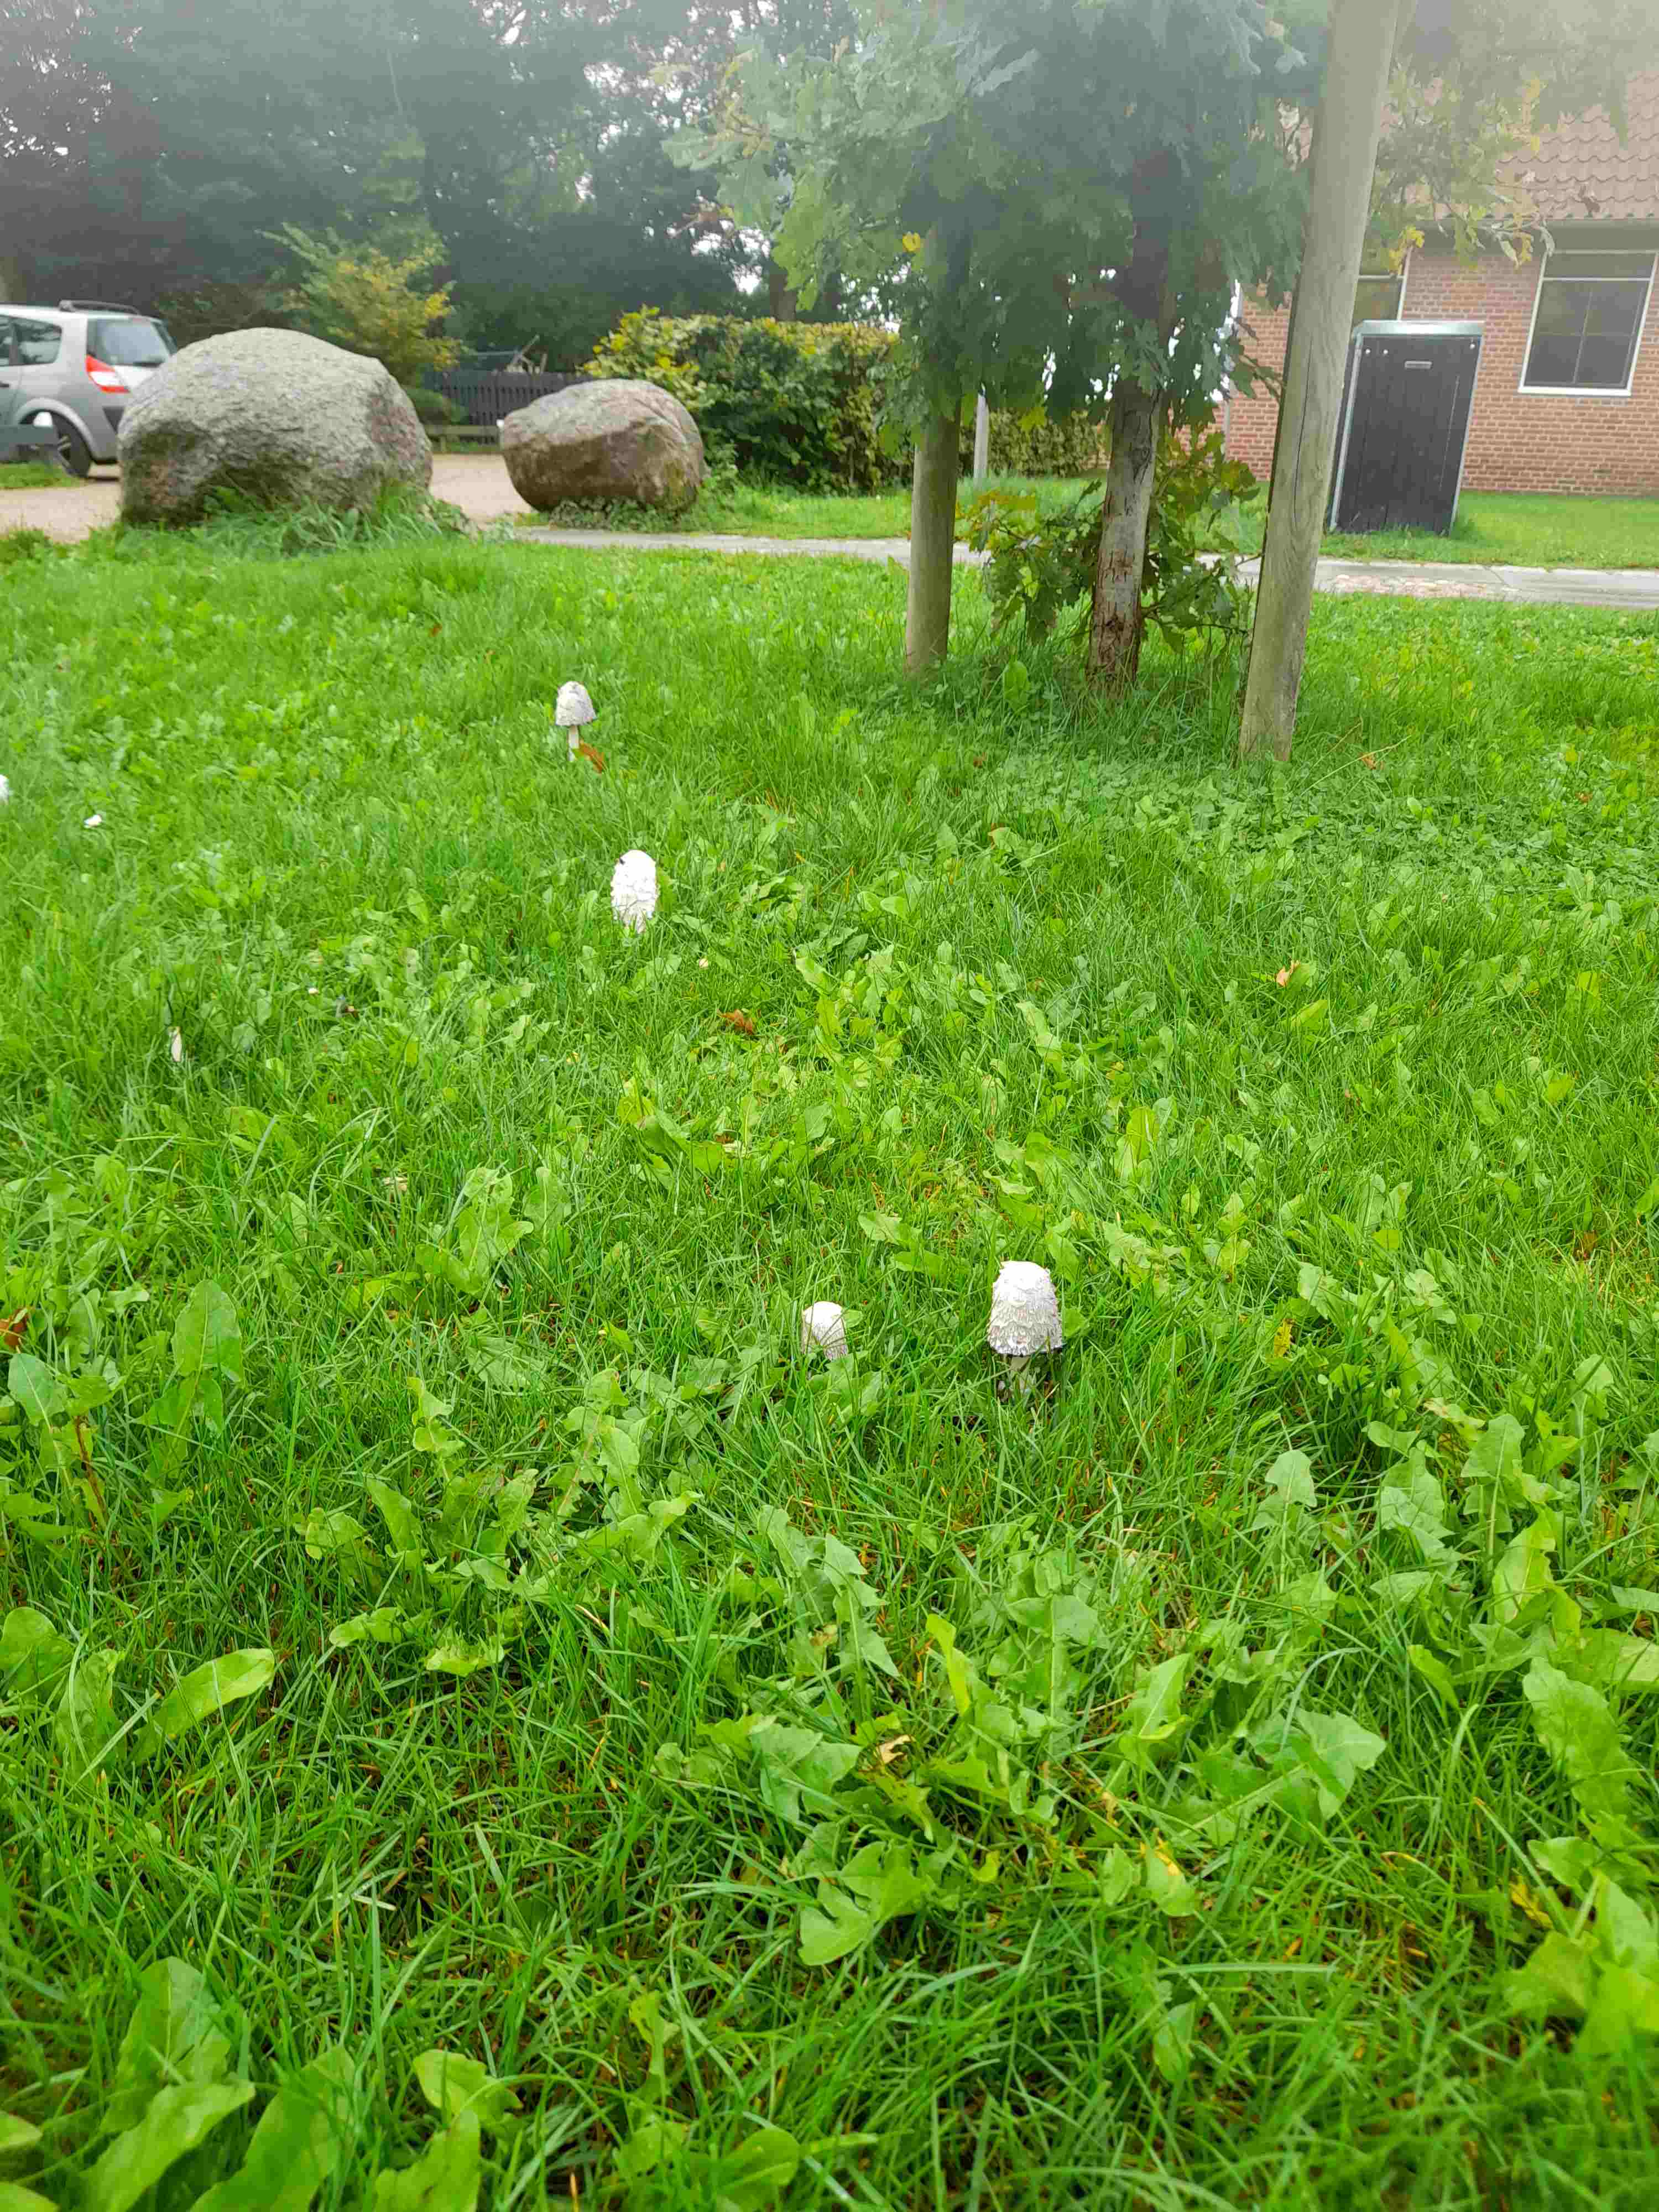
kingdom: Fungi
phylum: Basidiomycota
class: Agaricomycetes
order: Agaricales
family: Agaricaceae
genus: Coprinus
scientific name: Coprinus comatus
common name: stor parykhat
